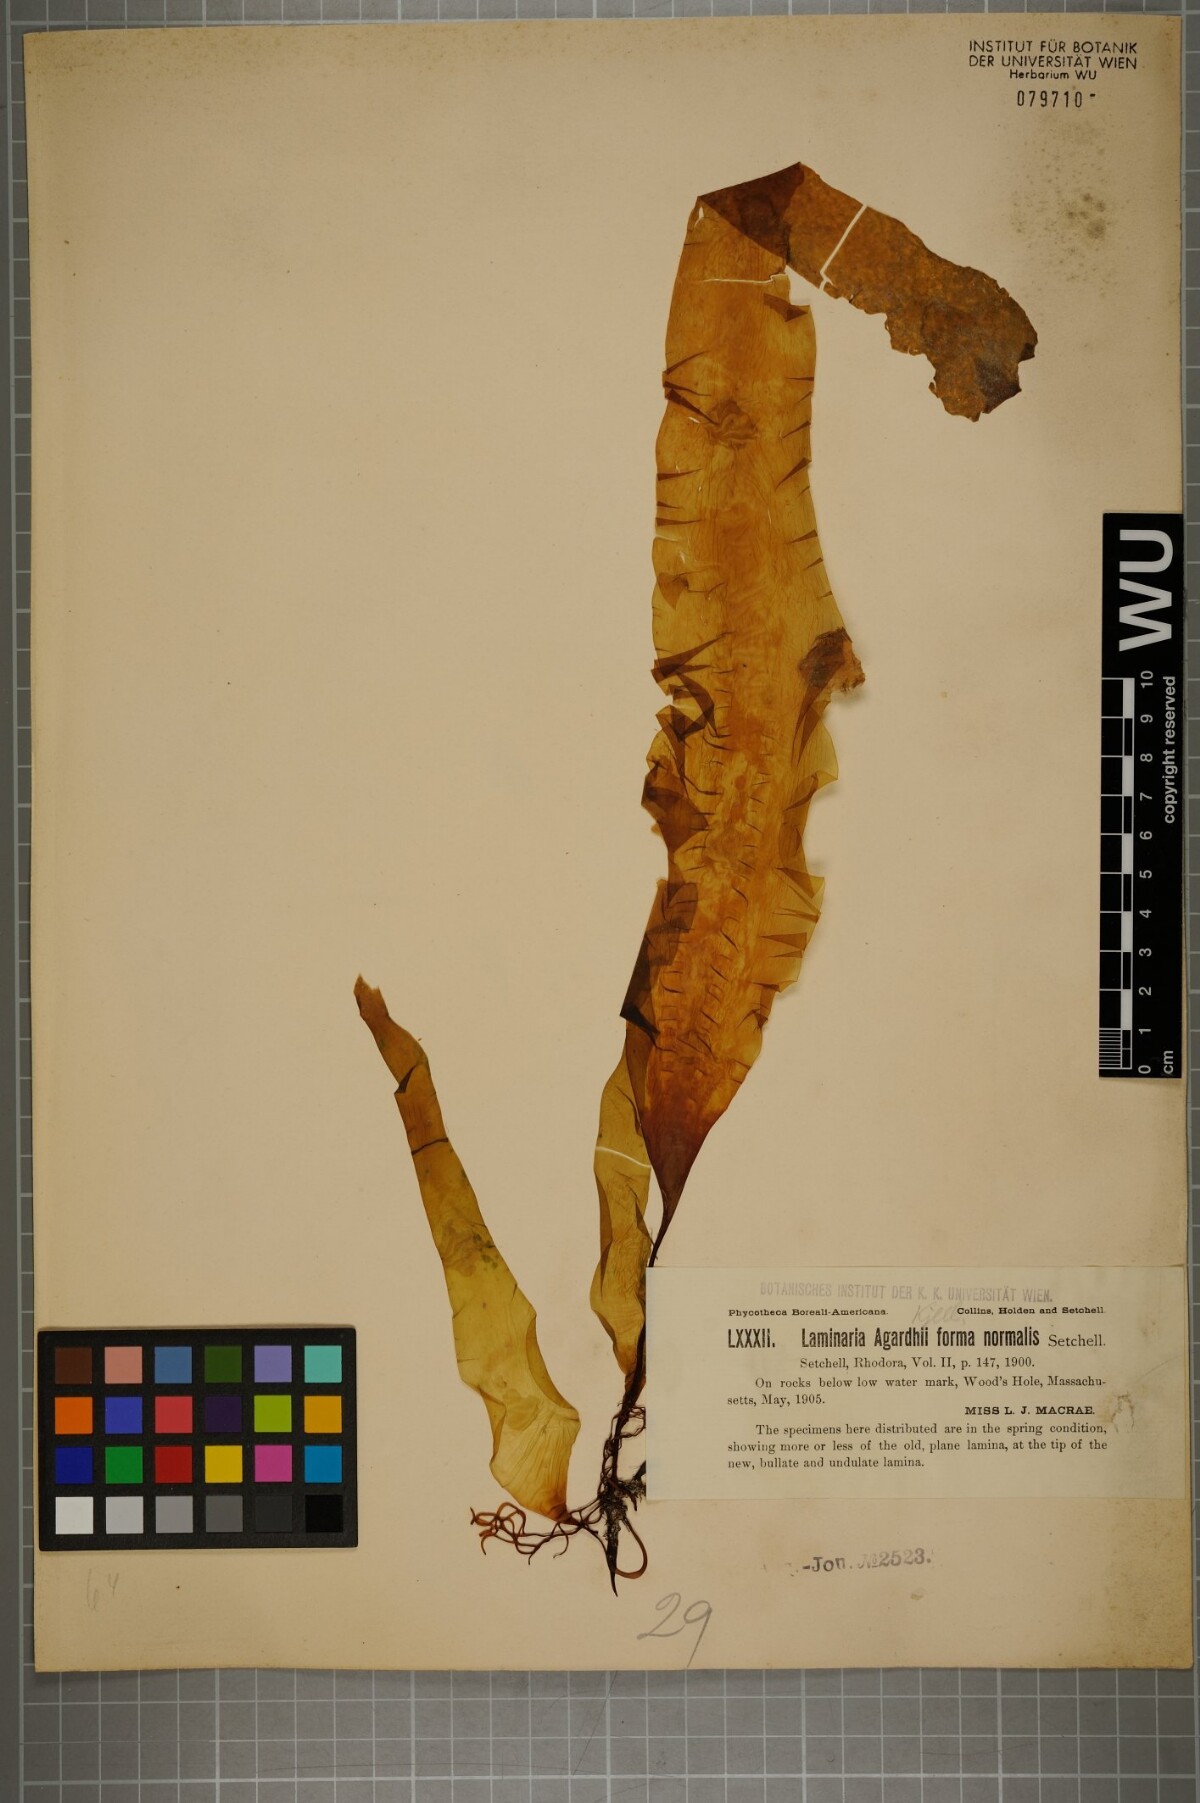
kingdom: Chromista
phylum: Ochrophyta
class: Phaeophyceae
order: Laminariales
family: Laminariaceae
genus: Saccharina
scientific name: Saccharina latissima
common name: Poor man's weather glass
